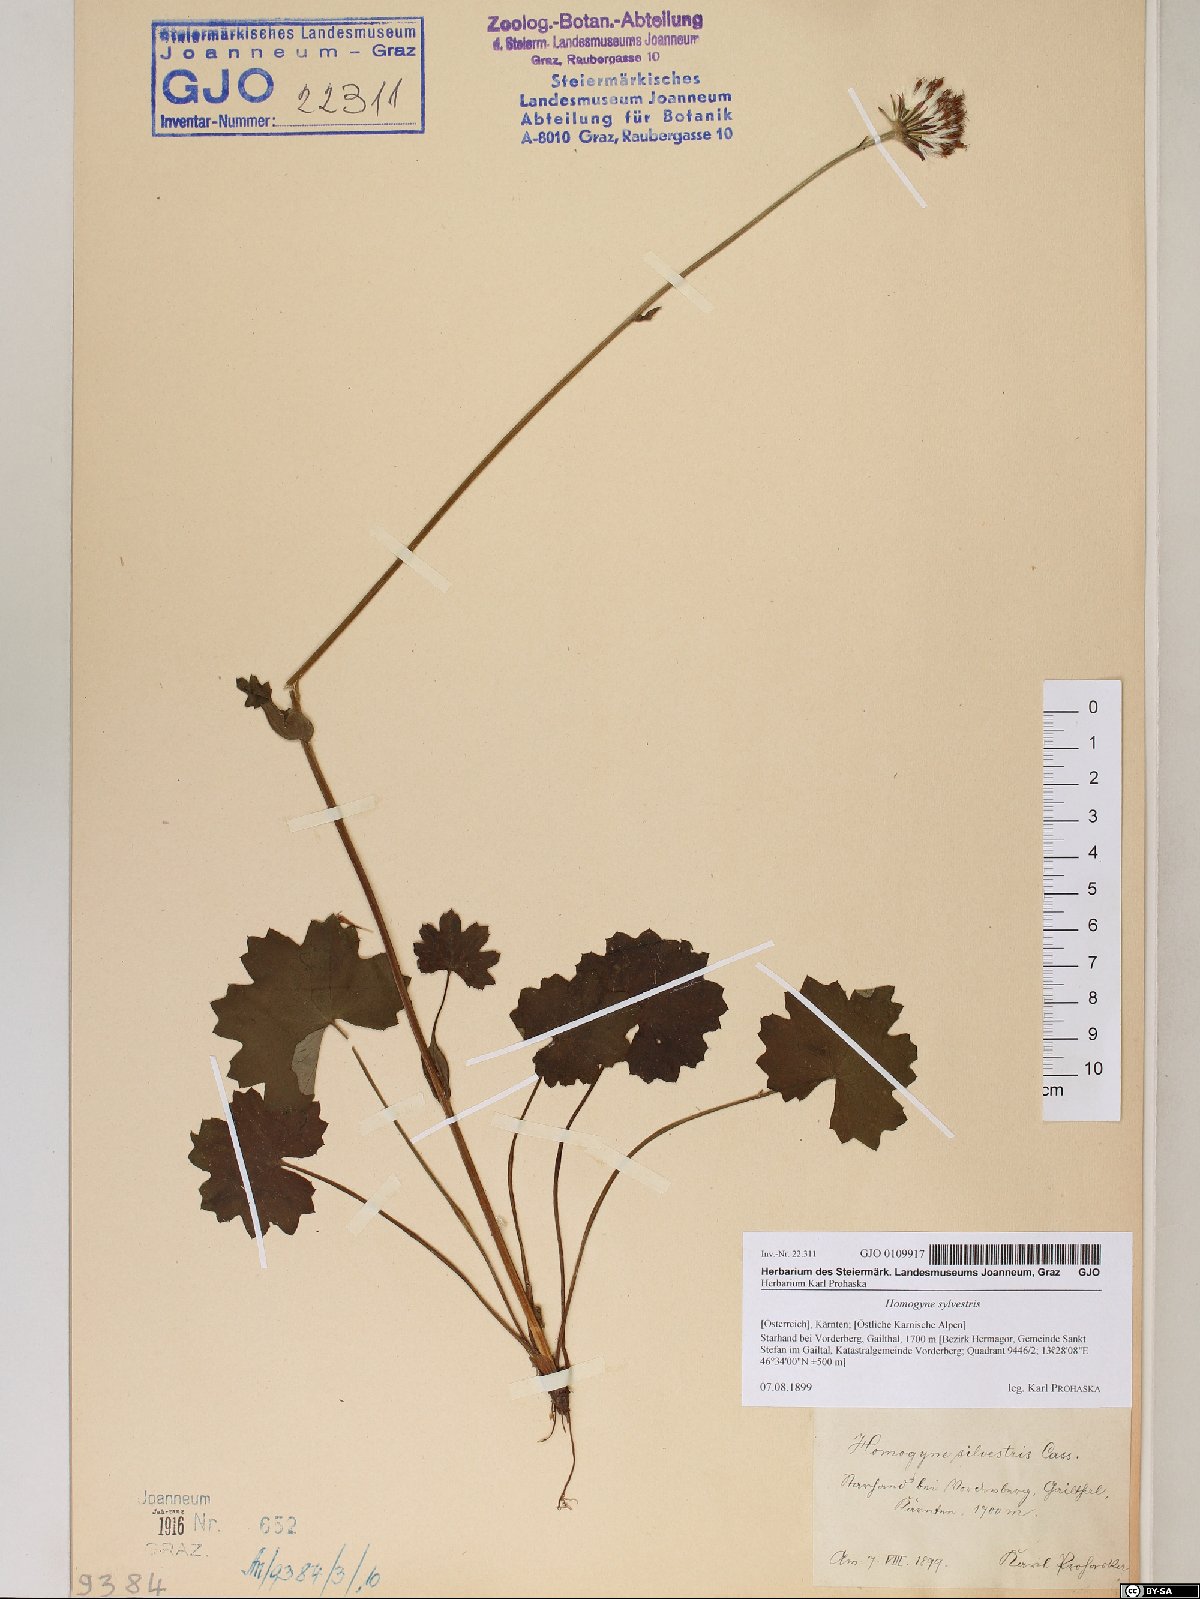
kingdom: Plantae
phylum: Tracheophyta
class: Magnoliopsida
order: Asterales
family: Asteraceae
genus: Homogyne
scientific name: Homogyne sylvestris
